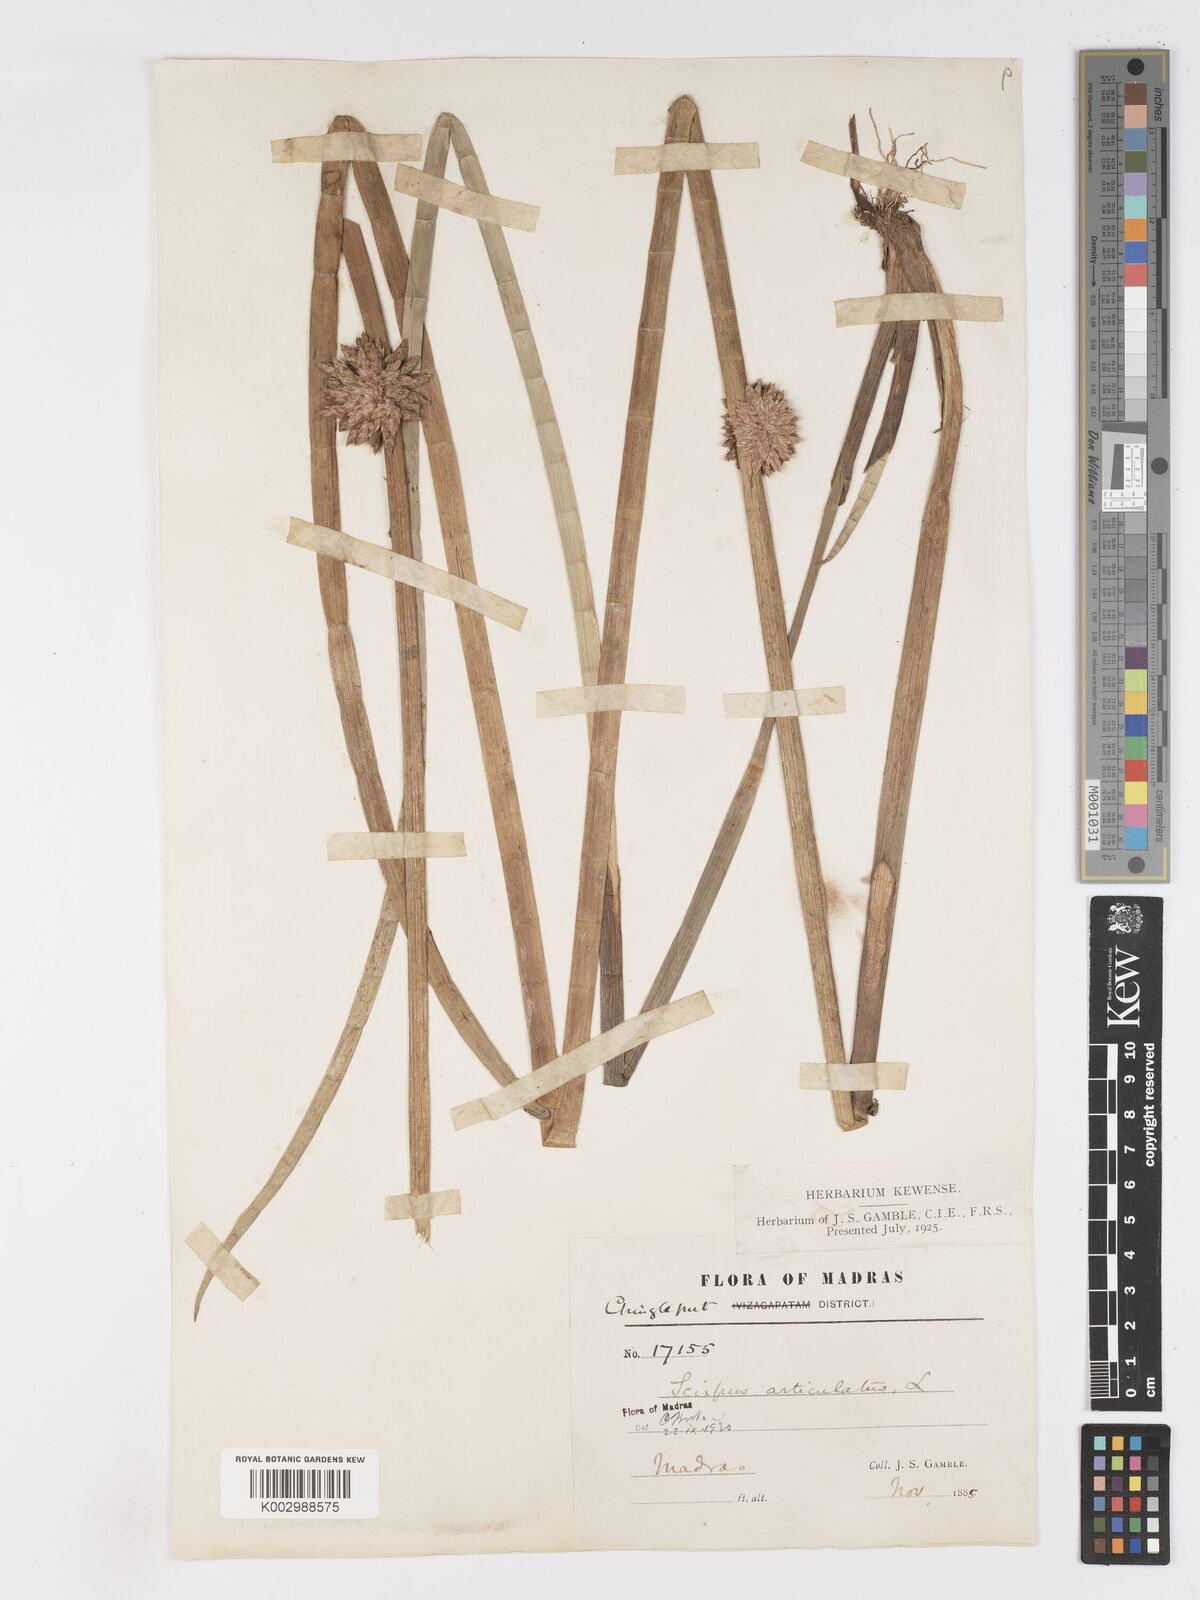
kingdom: Plantae
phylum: Tracheophyta
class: Liliopsida
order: Poales
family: Cyperaceae
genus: Schoenoplectiella
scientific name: Schoenoplectiella articulata
